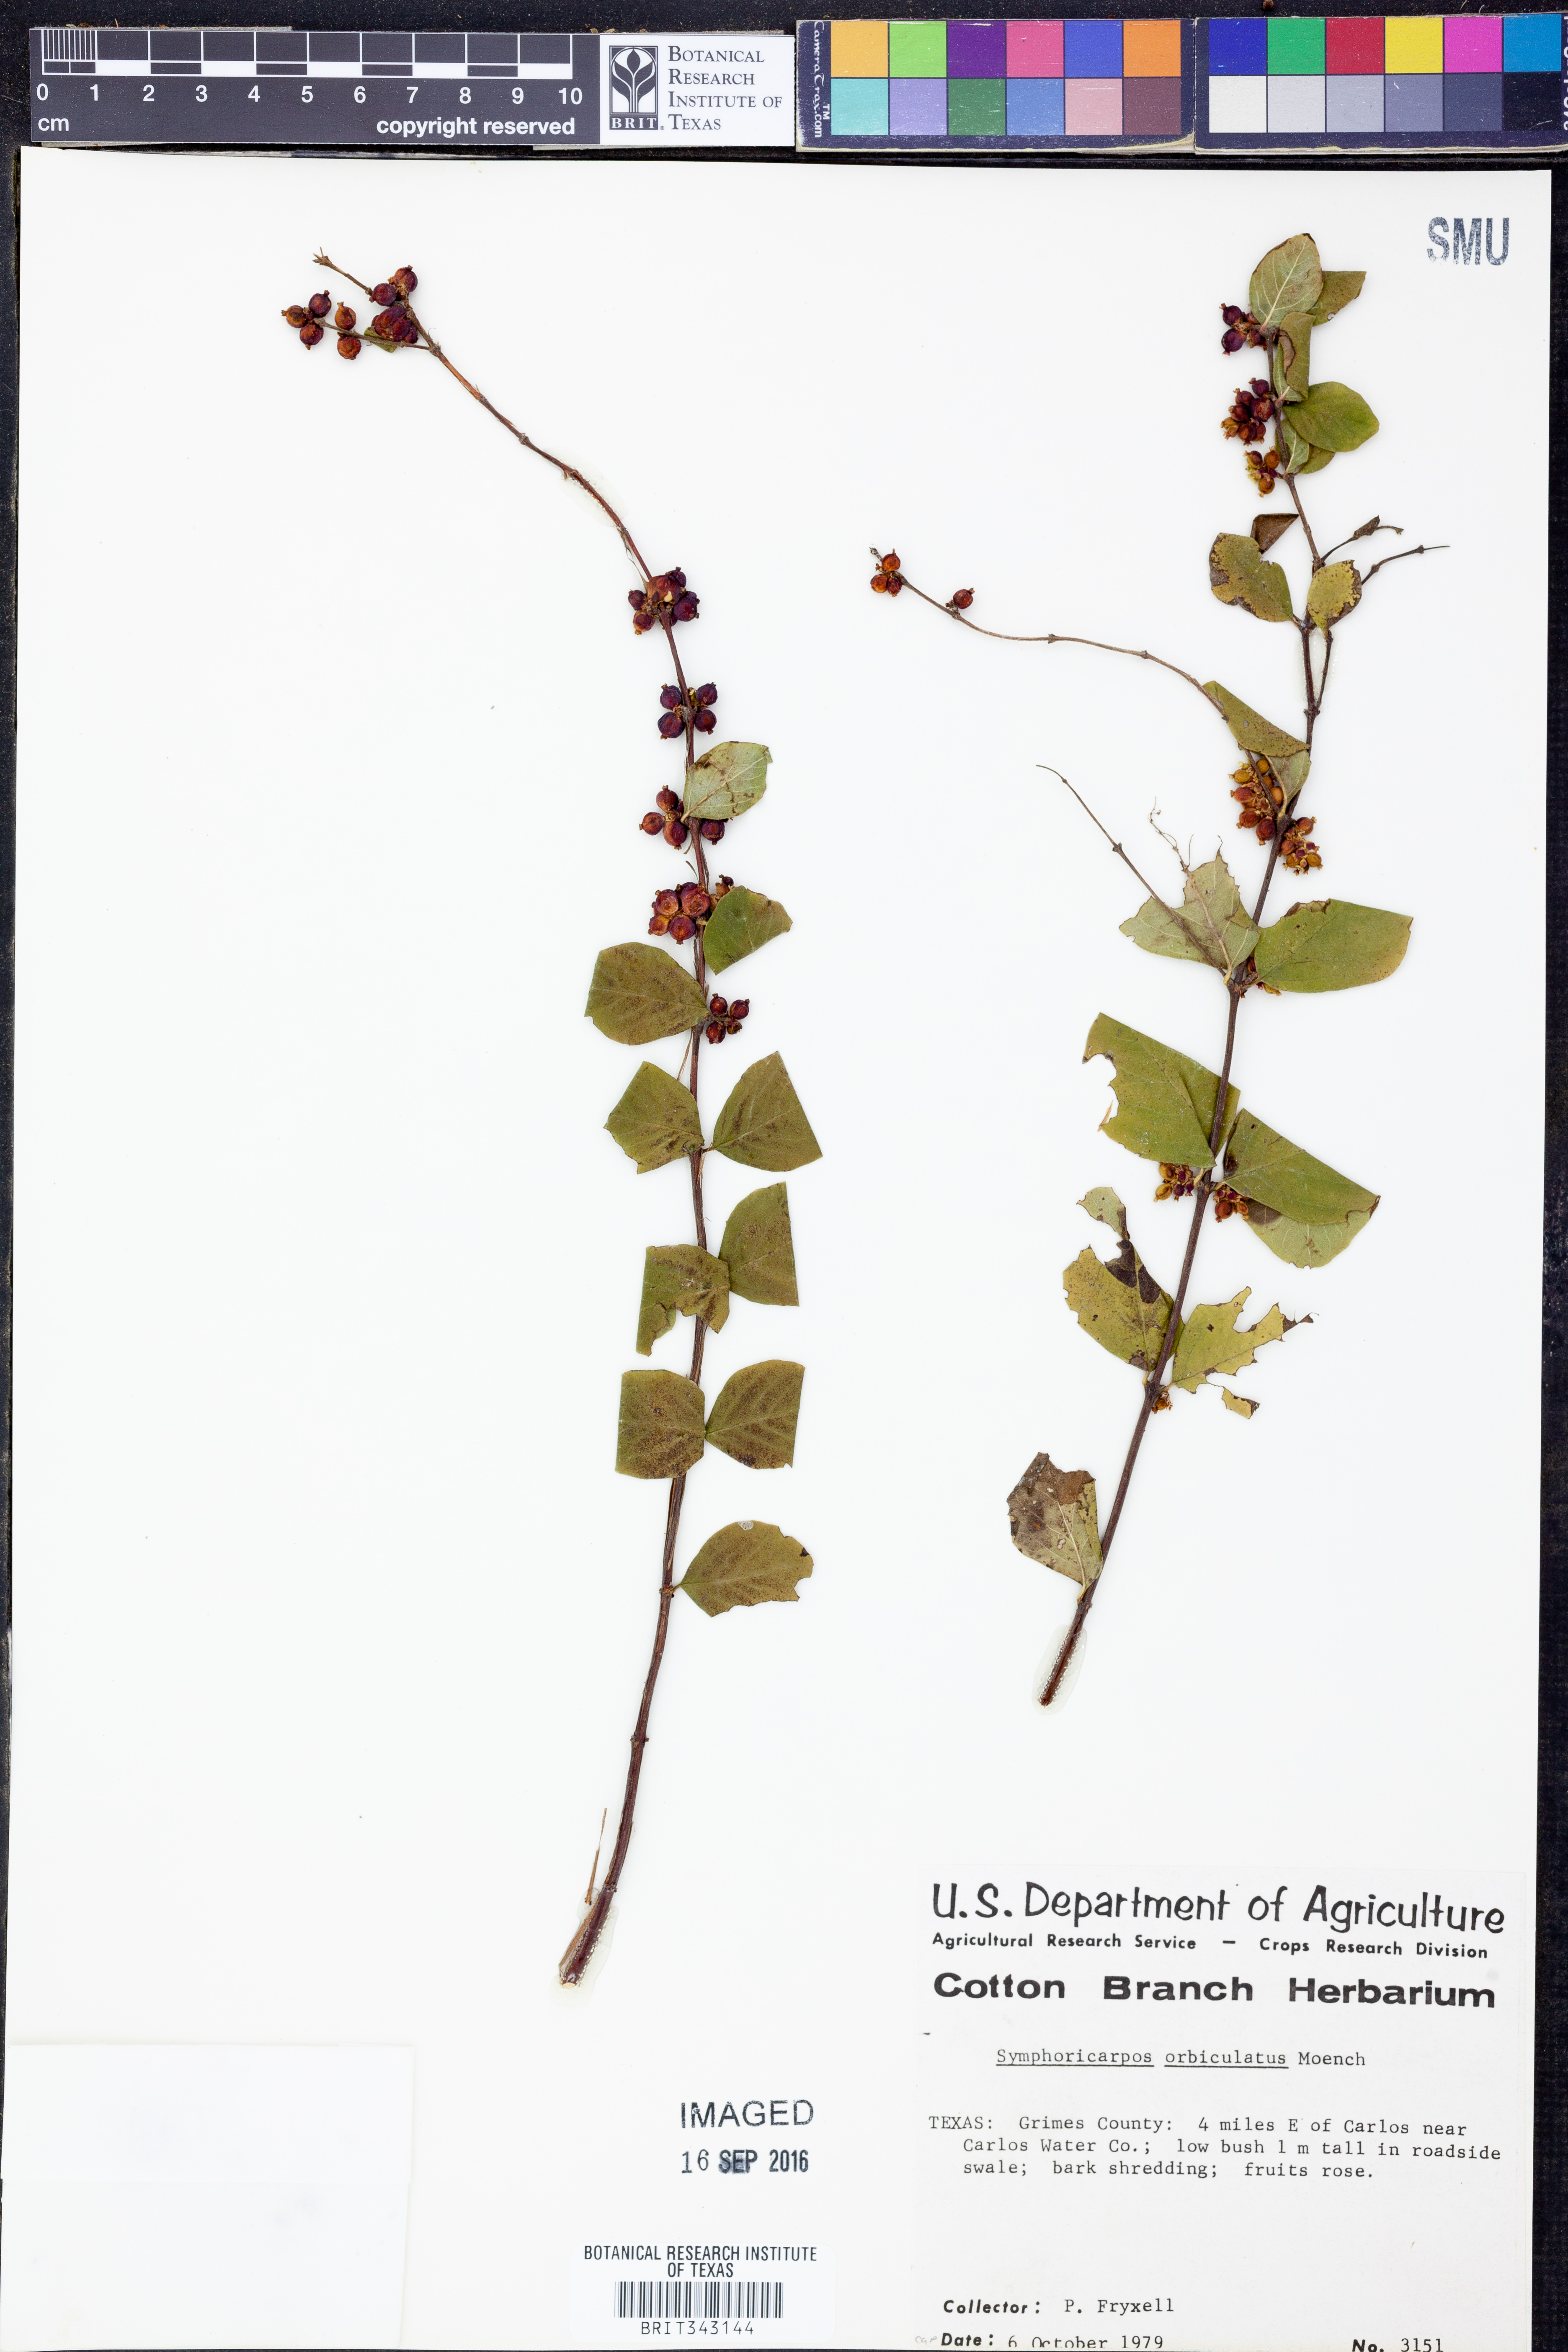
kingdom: Plantae
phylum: Tracheophyta
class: Magnoliopsida
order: Dipsacales
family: Caprifoliaceae
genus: Symphoricarpos
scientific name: Symphoricarpos orbiculatus
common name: Coralberry
